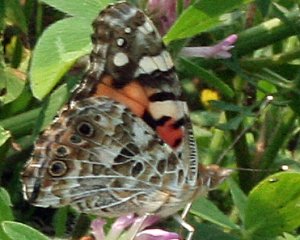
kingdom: Animalia
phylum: Arthropoda
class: Insecta
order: Lepidoptera
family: Nymphalidae
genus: Vanessa
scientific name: Vanessa cardui
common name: Painted Lady
